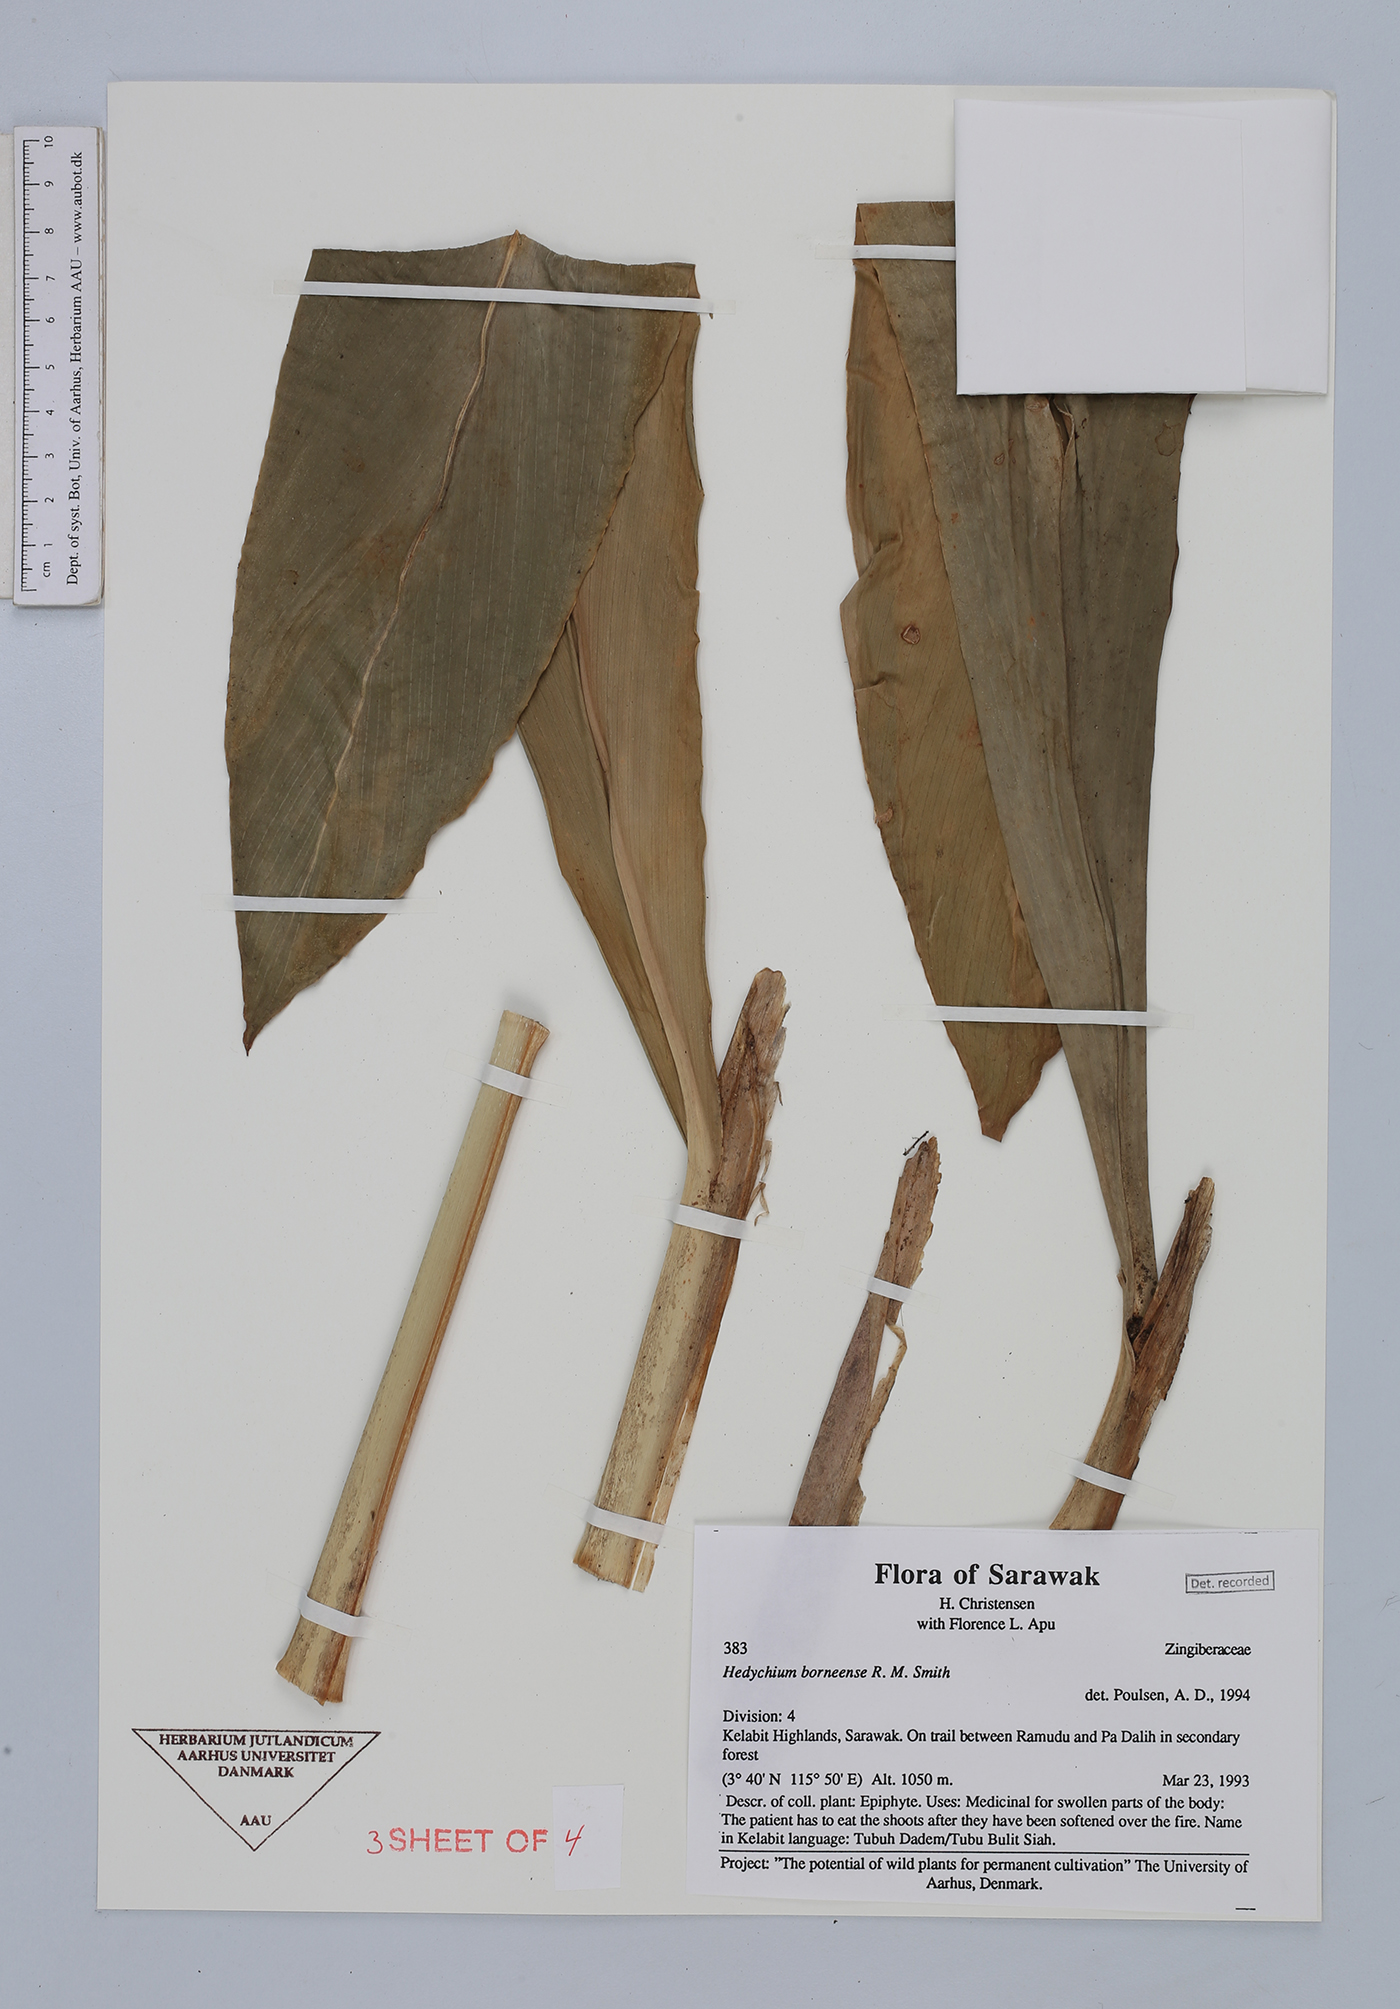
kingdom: Plantae
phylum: Tracheophyta
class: Liliopsida
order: Zingiberales
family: Zingiberaceae
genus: Hedychium
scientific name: Hedychium borneense
